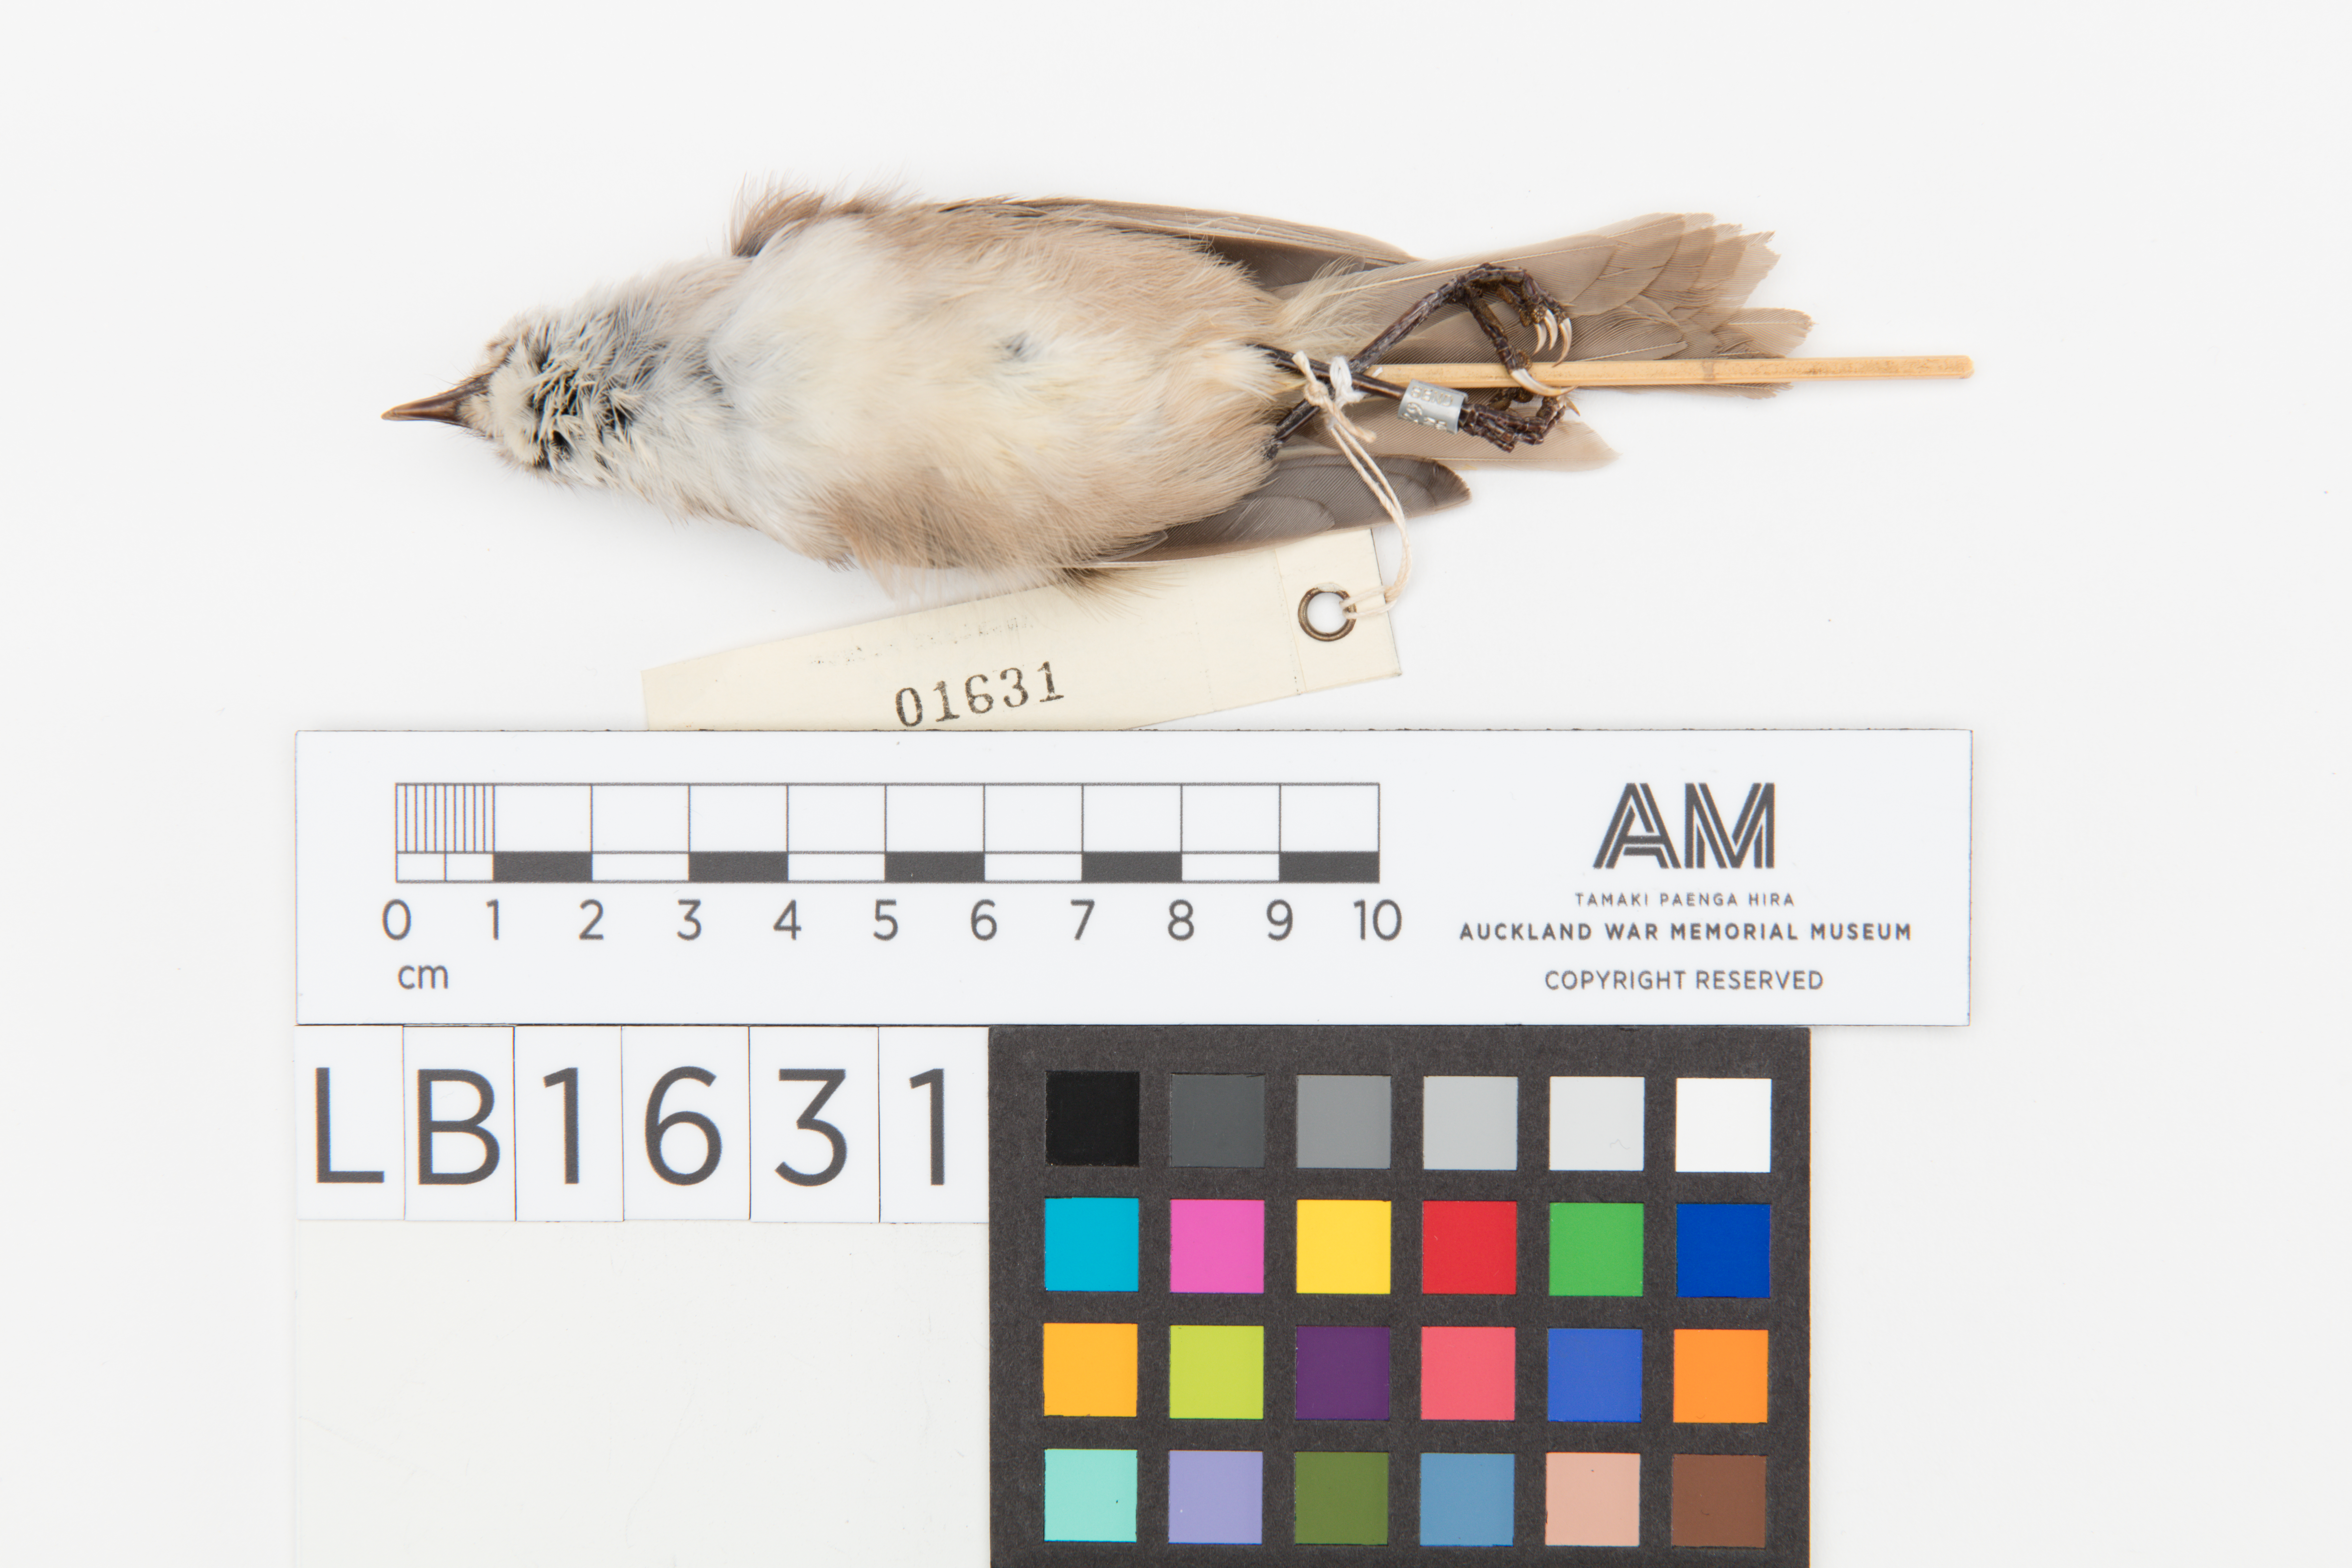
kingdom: Animalia
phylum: Chordata
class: Aves
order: Passeriformes
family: Acanthizidae
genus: Mohoua
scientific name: Mohoua albicilla
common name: Whitehead
